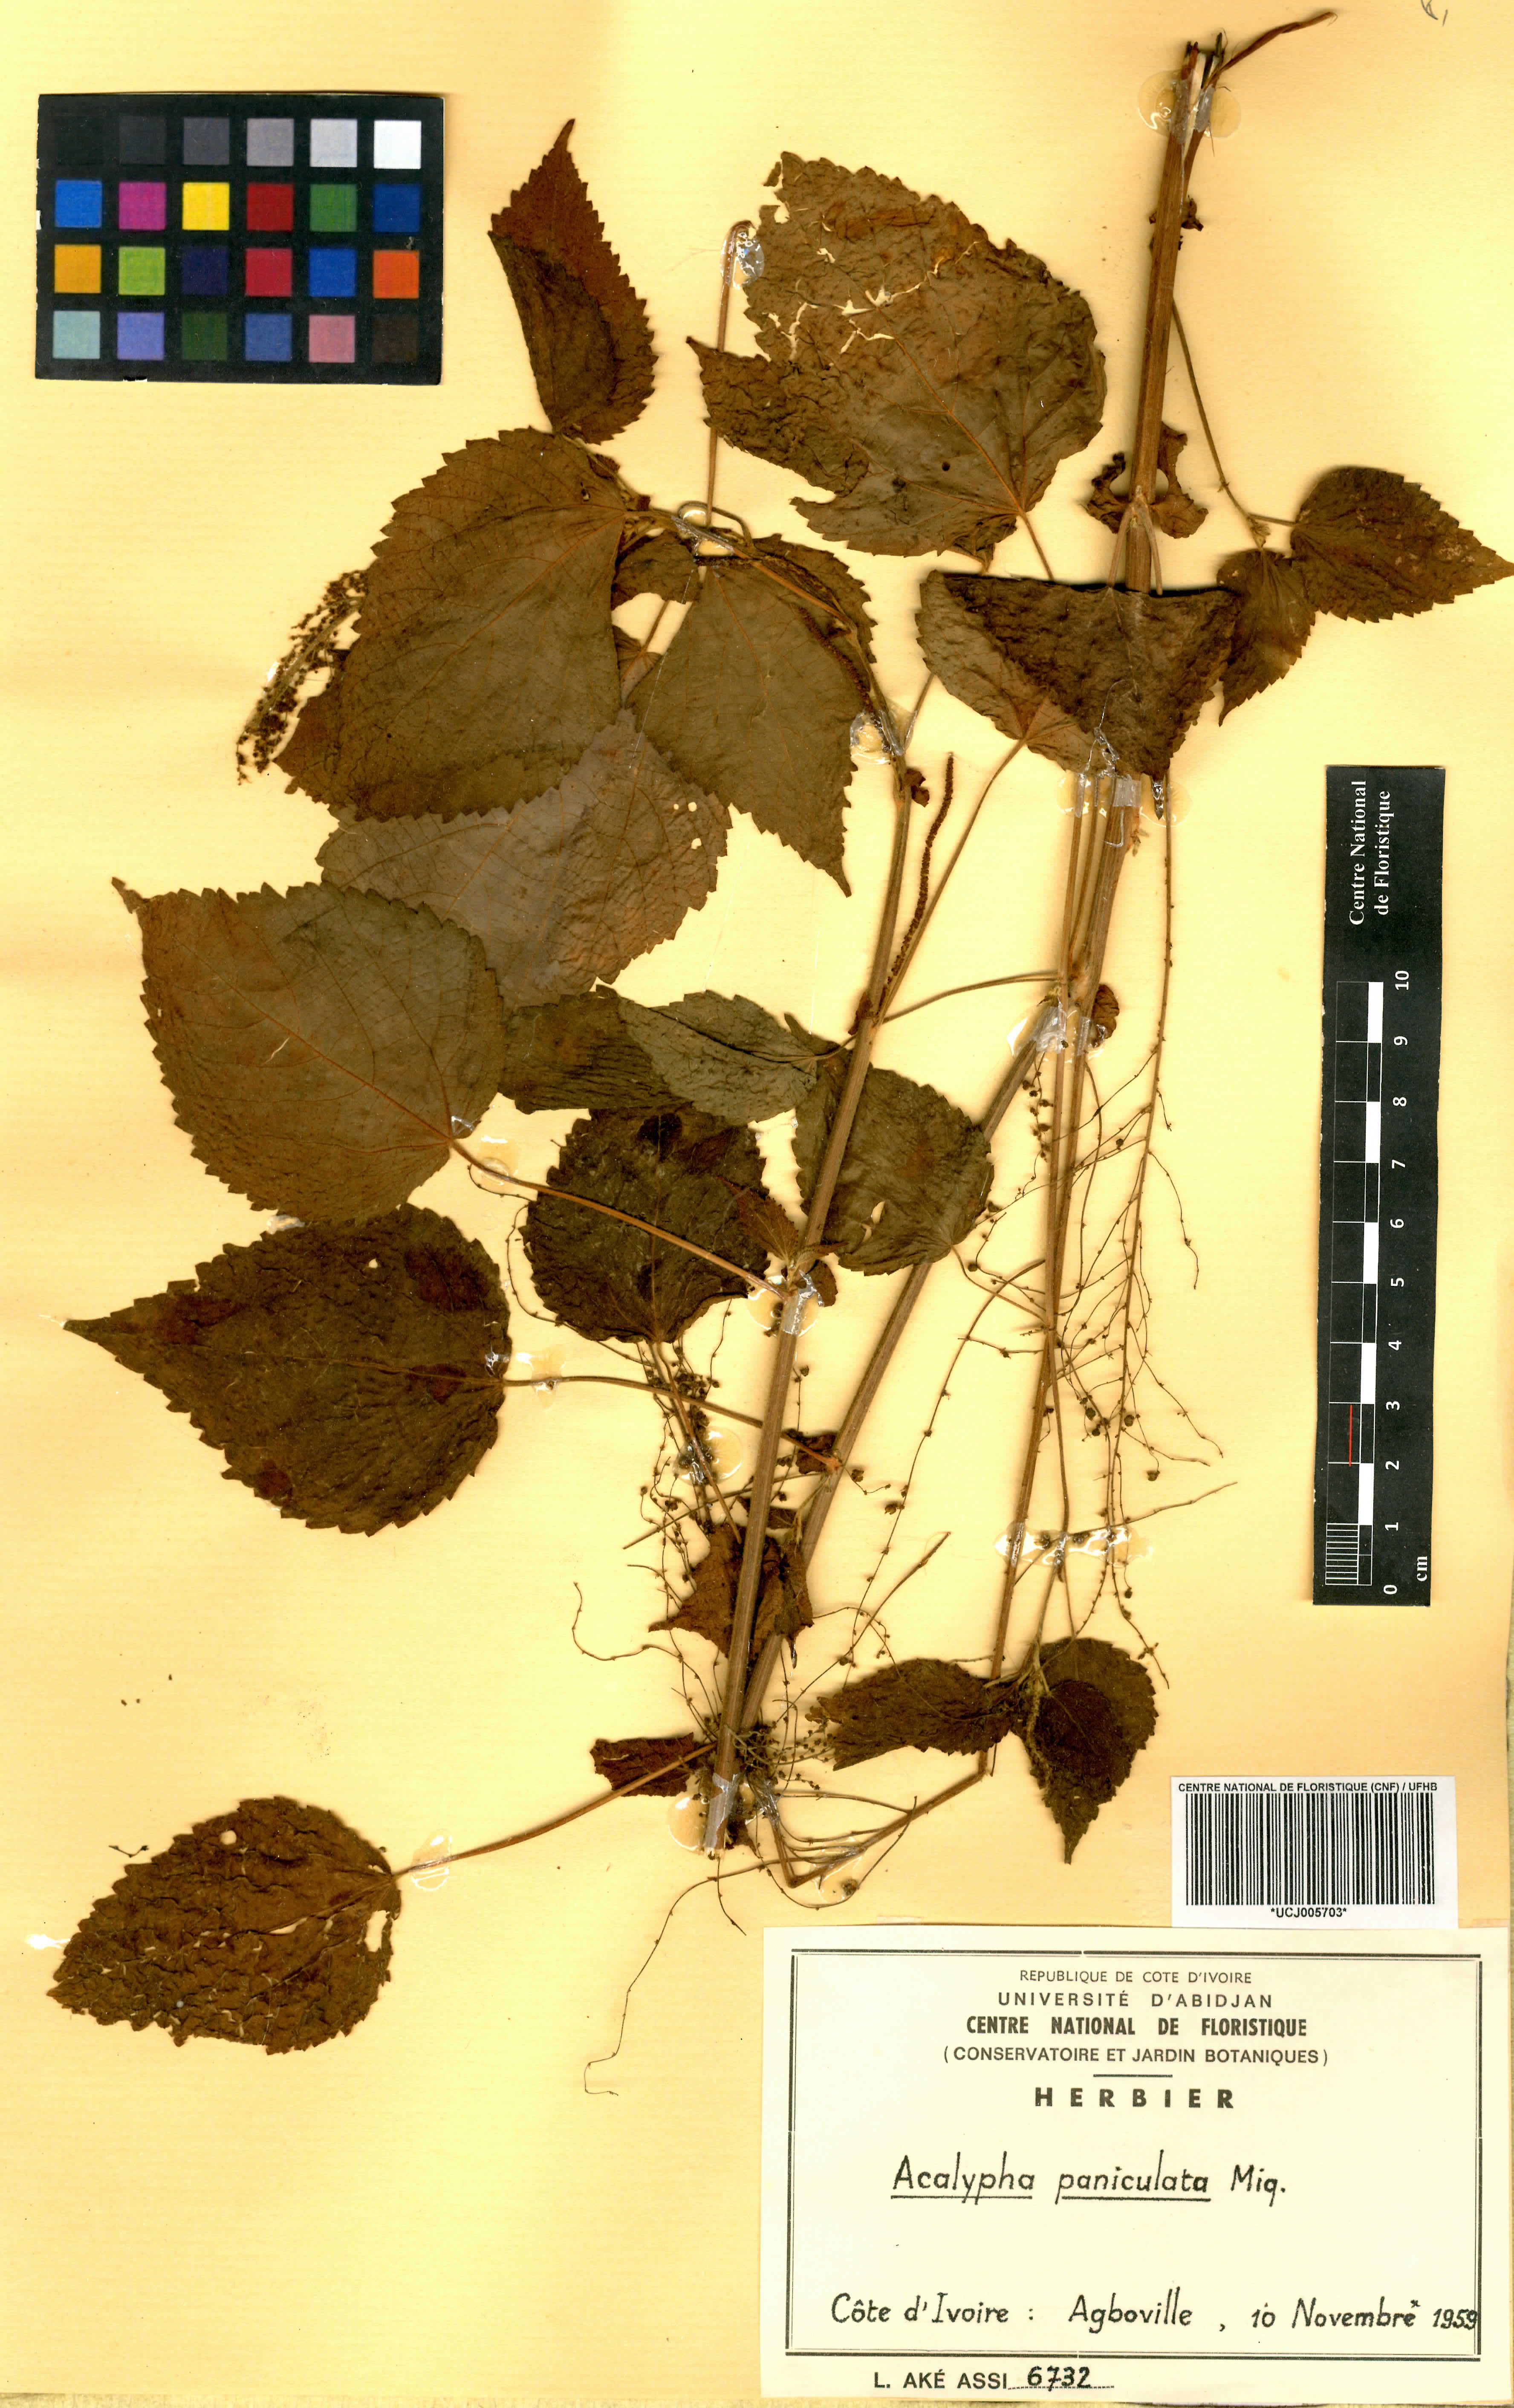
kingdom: Plantae
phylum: Tracheophyta
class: Magnoliopsida
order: Malpighiales
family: Euphorbiaceae
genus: Acalypha
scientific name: Acalypha paniculata
